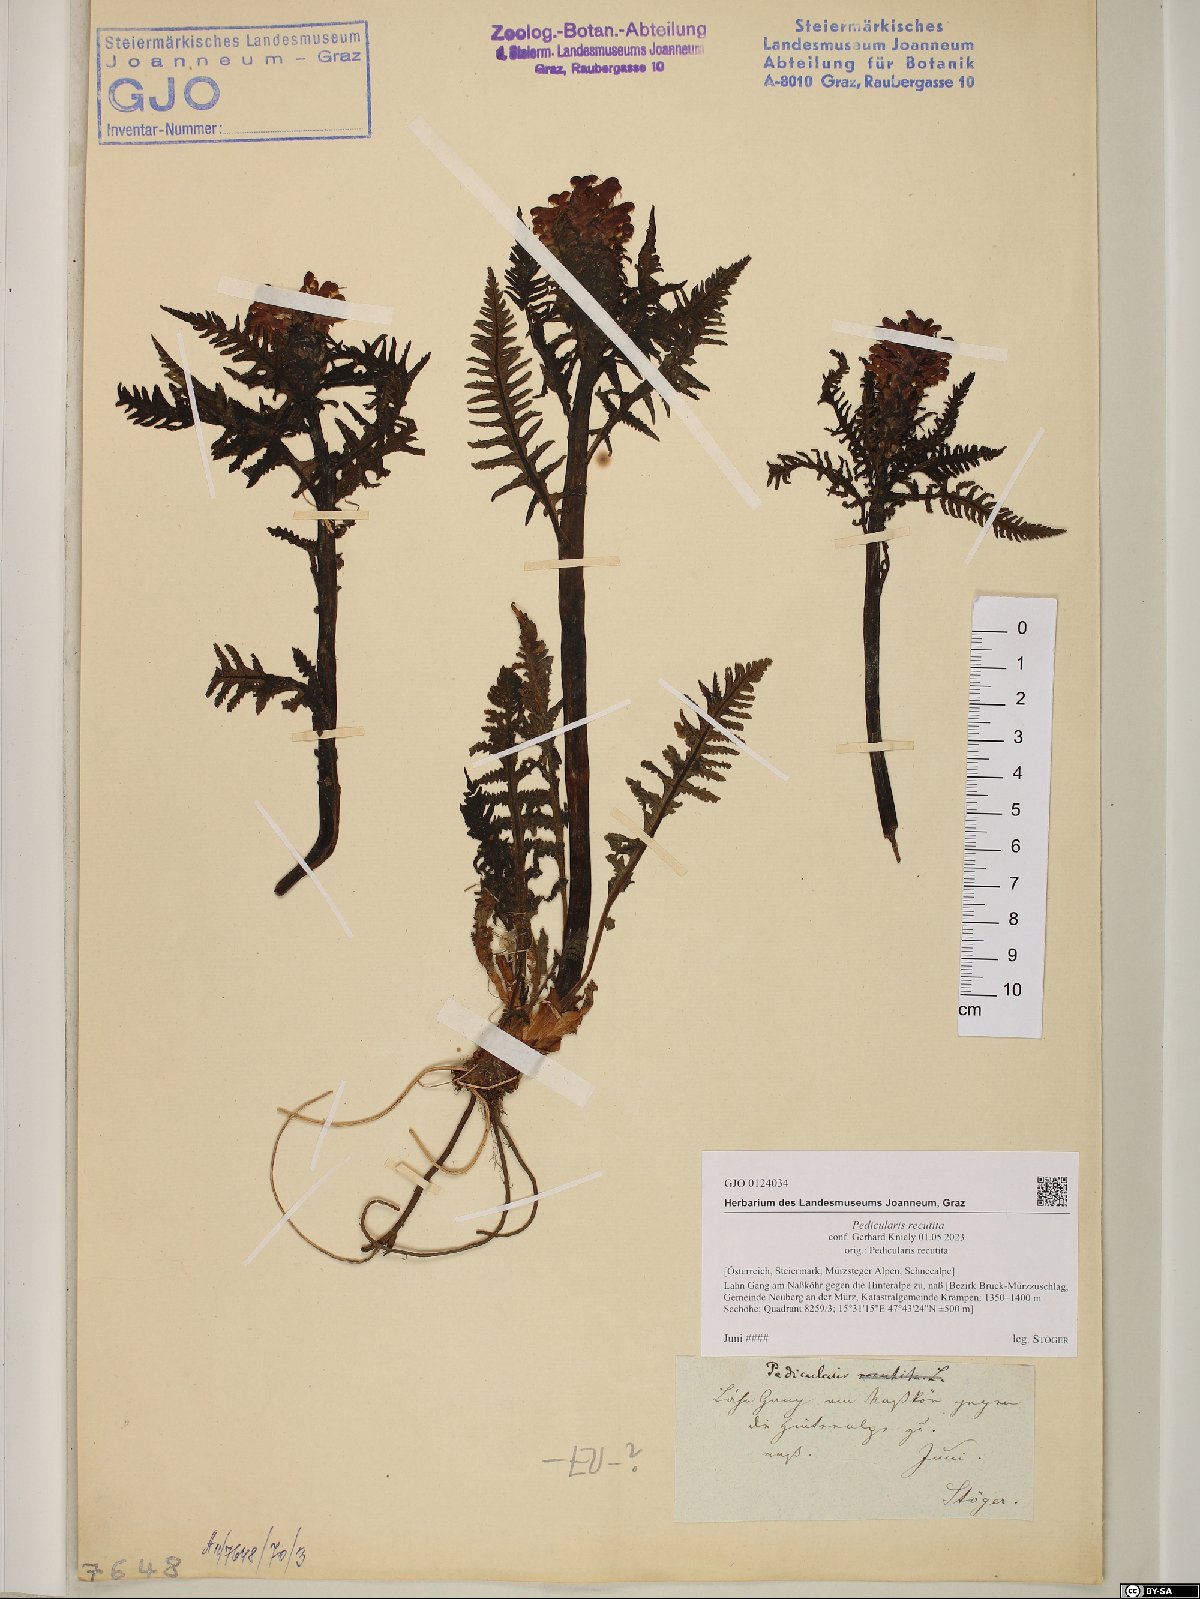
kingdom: Plantae
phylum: Tracheophyta
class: Magnoliopsida
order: Lamiales
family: Orobanchaceae
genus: Pedicularis
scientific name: Pedicularis recutita
